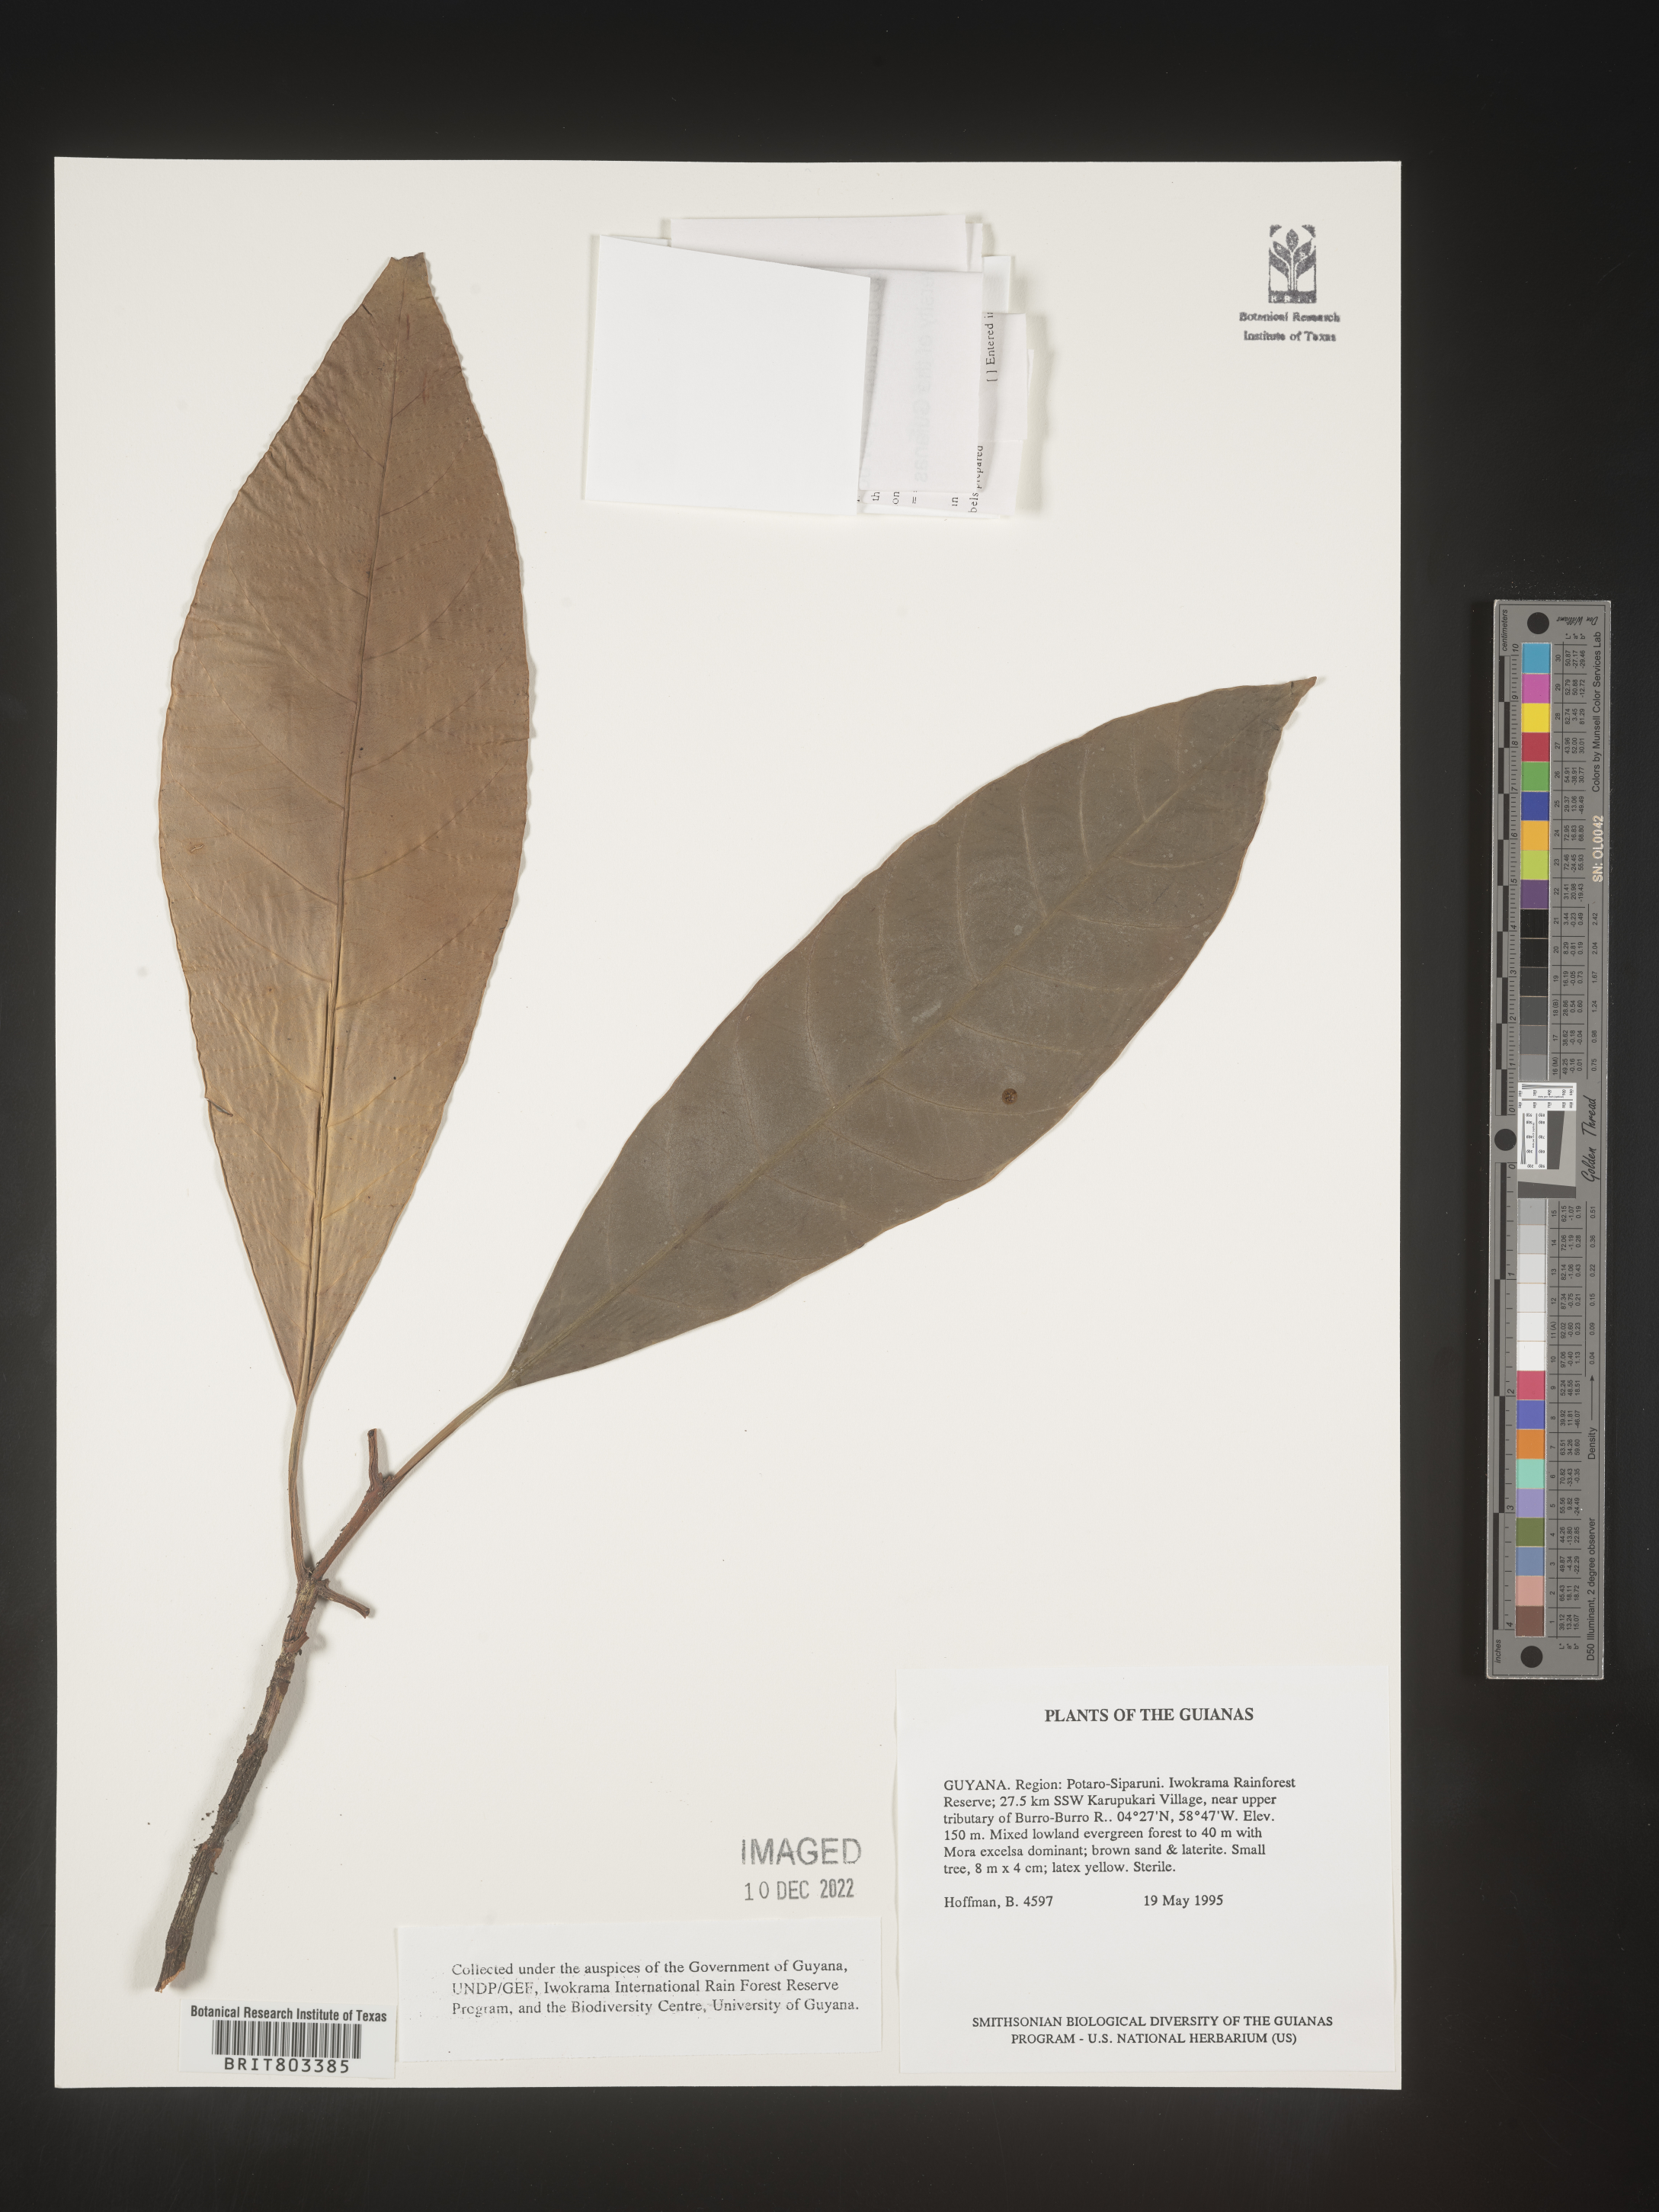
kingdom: Plantae
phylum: Tracheophyta
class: Magnoliopsida
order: Malpighiales
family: Clusiaceae
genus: Tovomita
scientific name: Tovomita
